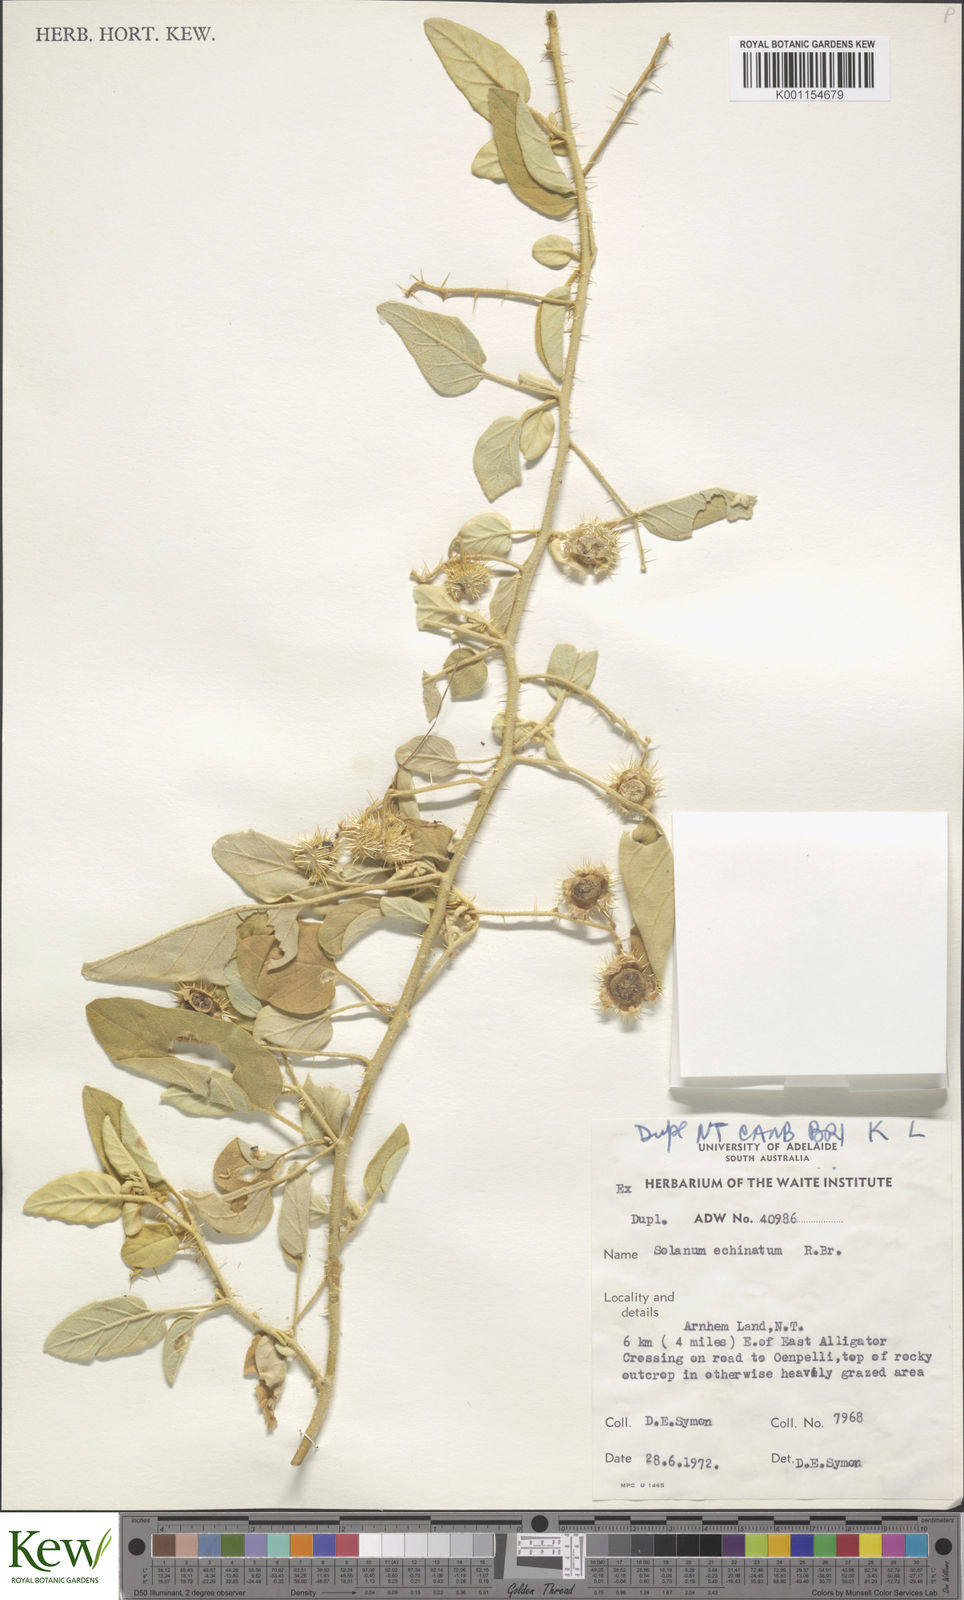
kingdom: Plantae
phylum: Tracheophyta
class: Magnoliopsida
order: Solanales
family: Solanaceae
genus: Solanum
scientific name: Solanum echinatum
